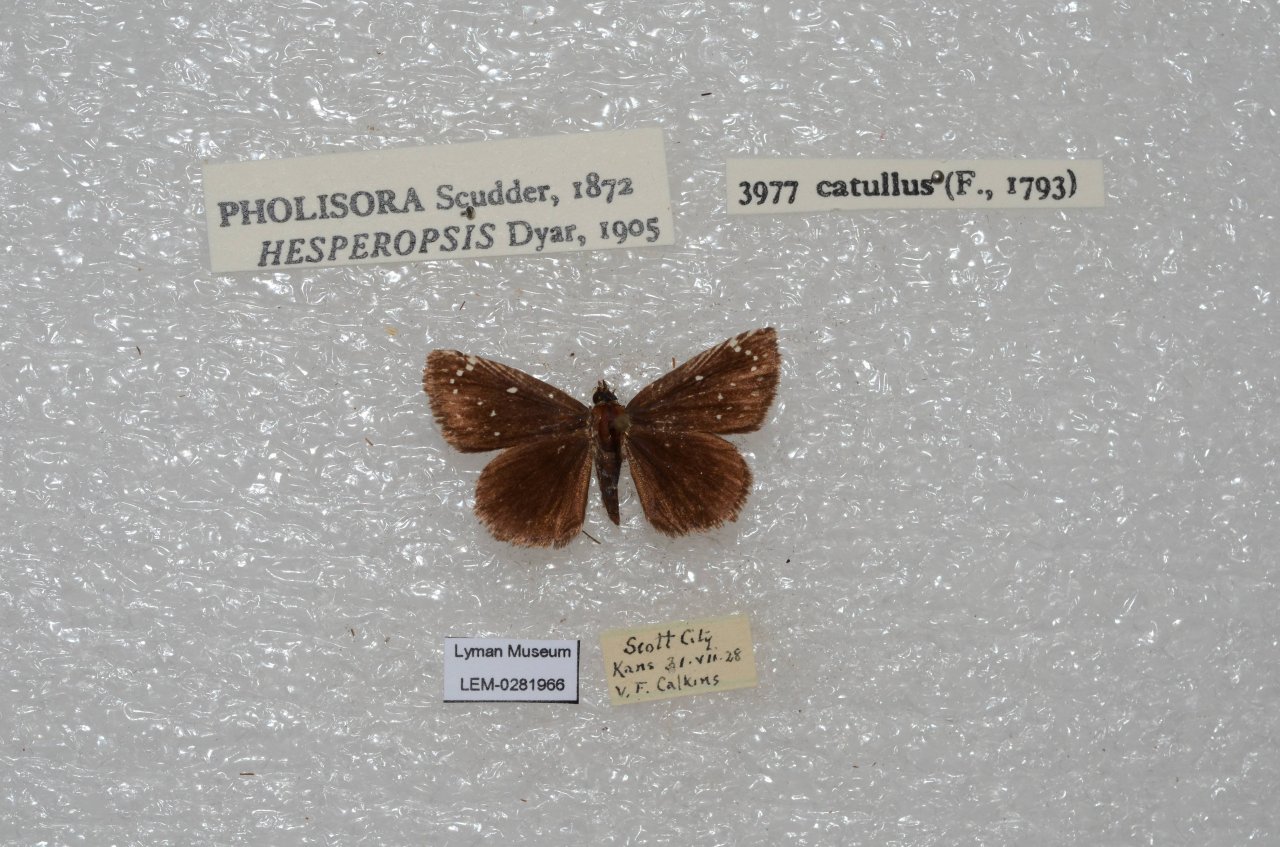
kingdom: Animalia
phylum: Arthropoda
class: Insecta
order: Lepidoptera
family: Hesperiidae
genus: Pholisora
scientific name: Pholisora catullus
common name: Common Sootywing
